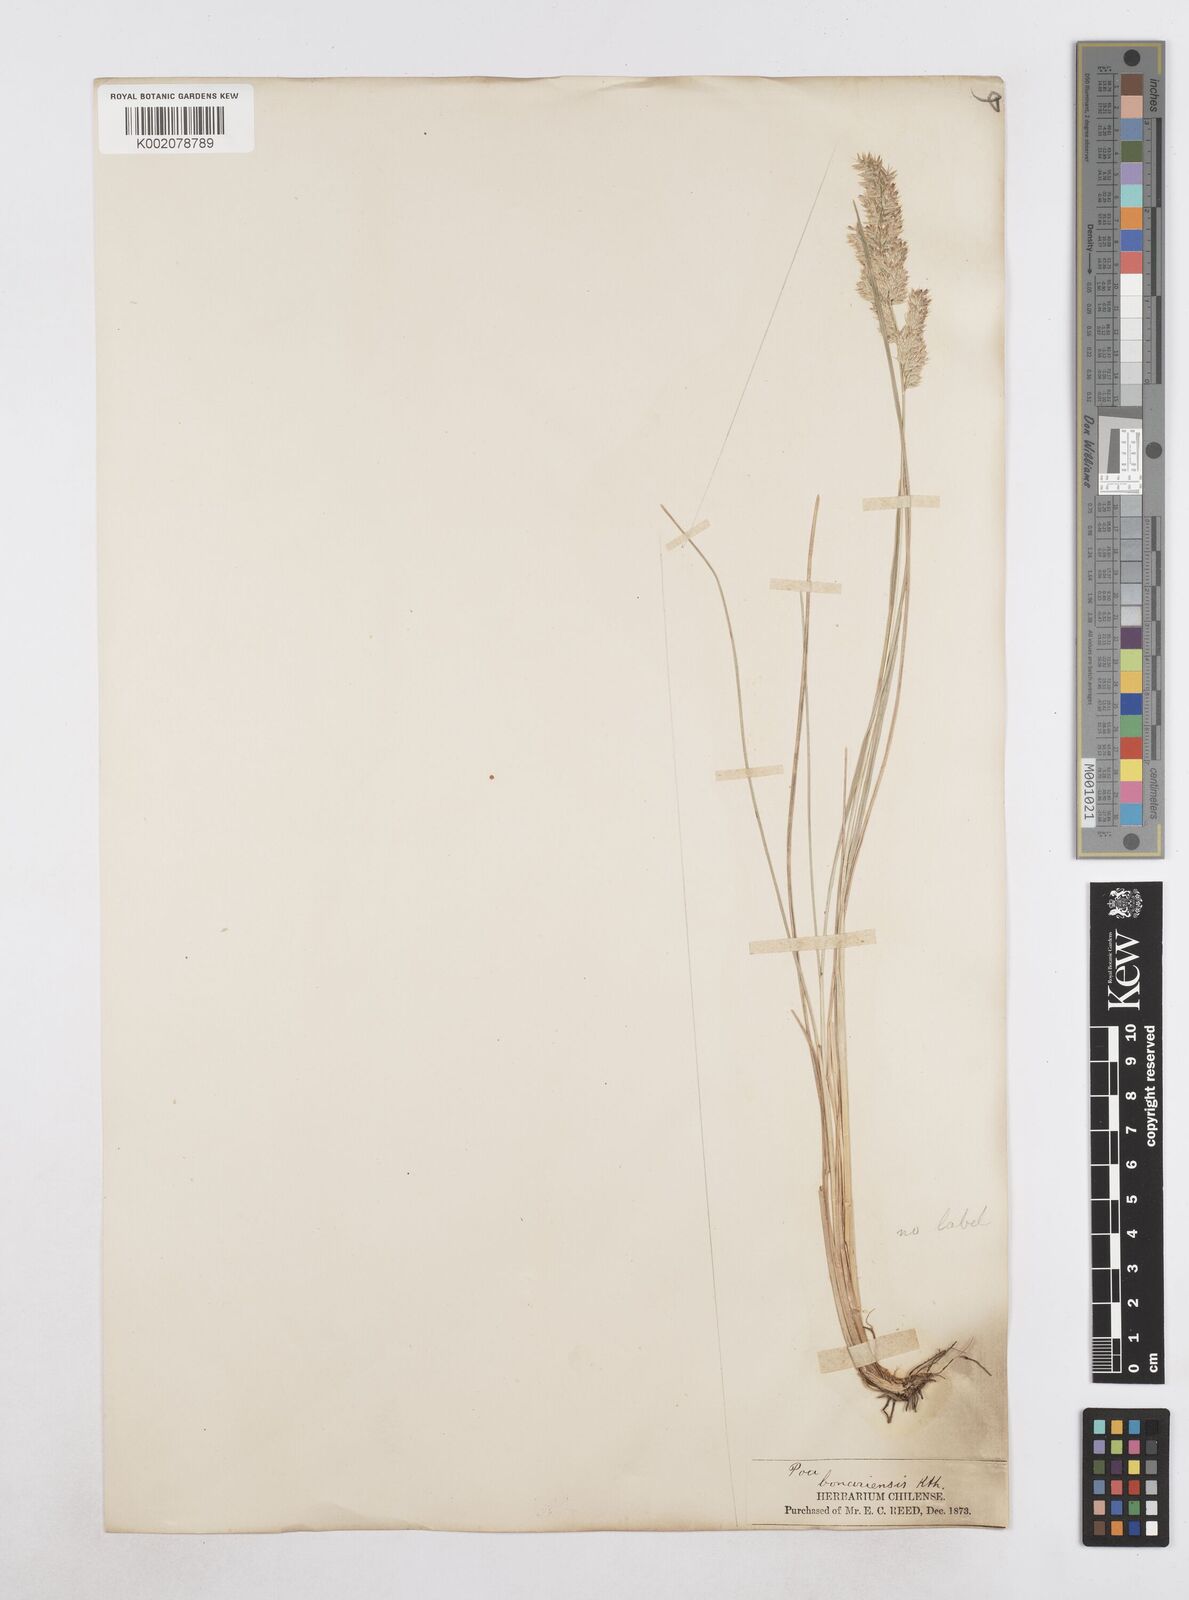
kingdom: Plantae
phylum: Tracheophyta
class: Liliopsida
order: Poales
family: Poaceae
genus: Poa
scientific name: Poa
